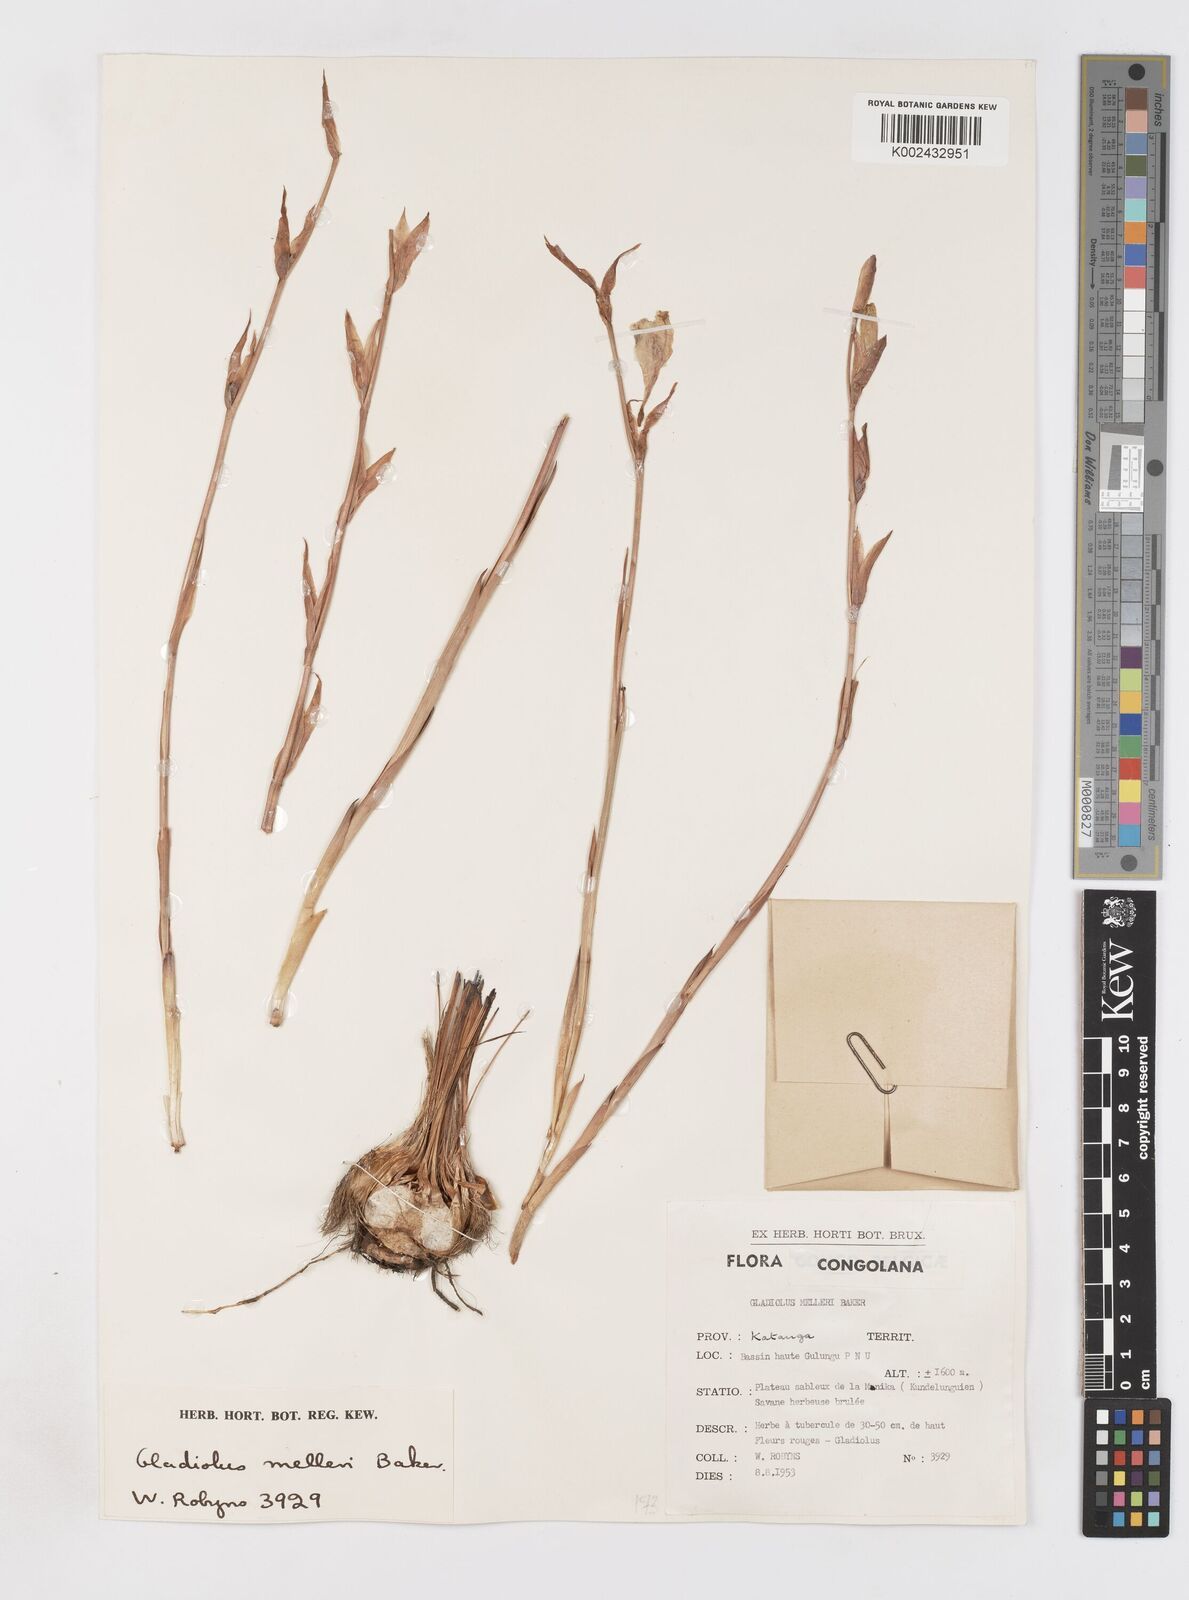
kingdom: Plantae
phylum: Tracheophyta
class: Liliopsida
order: Asparagales
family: Iridaceae
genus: Gladiolus
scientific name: Gladiolus melleri
